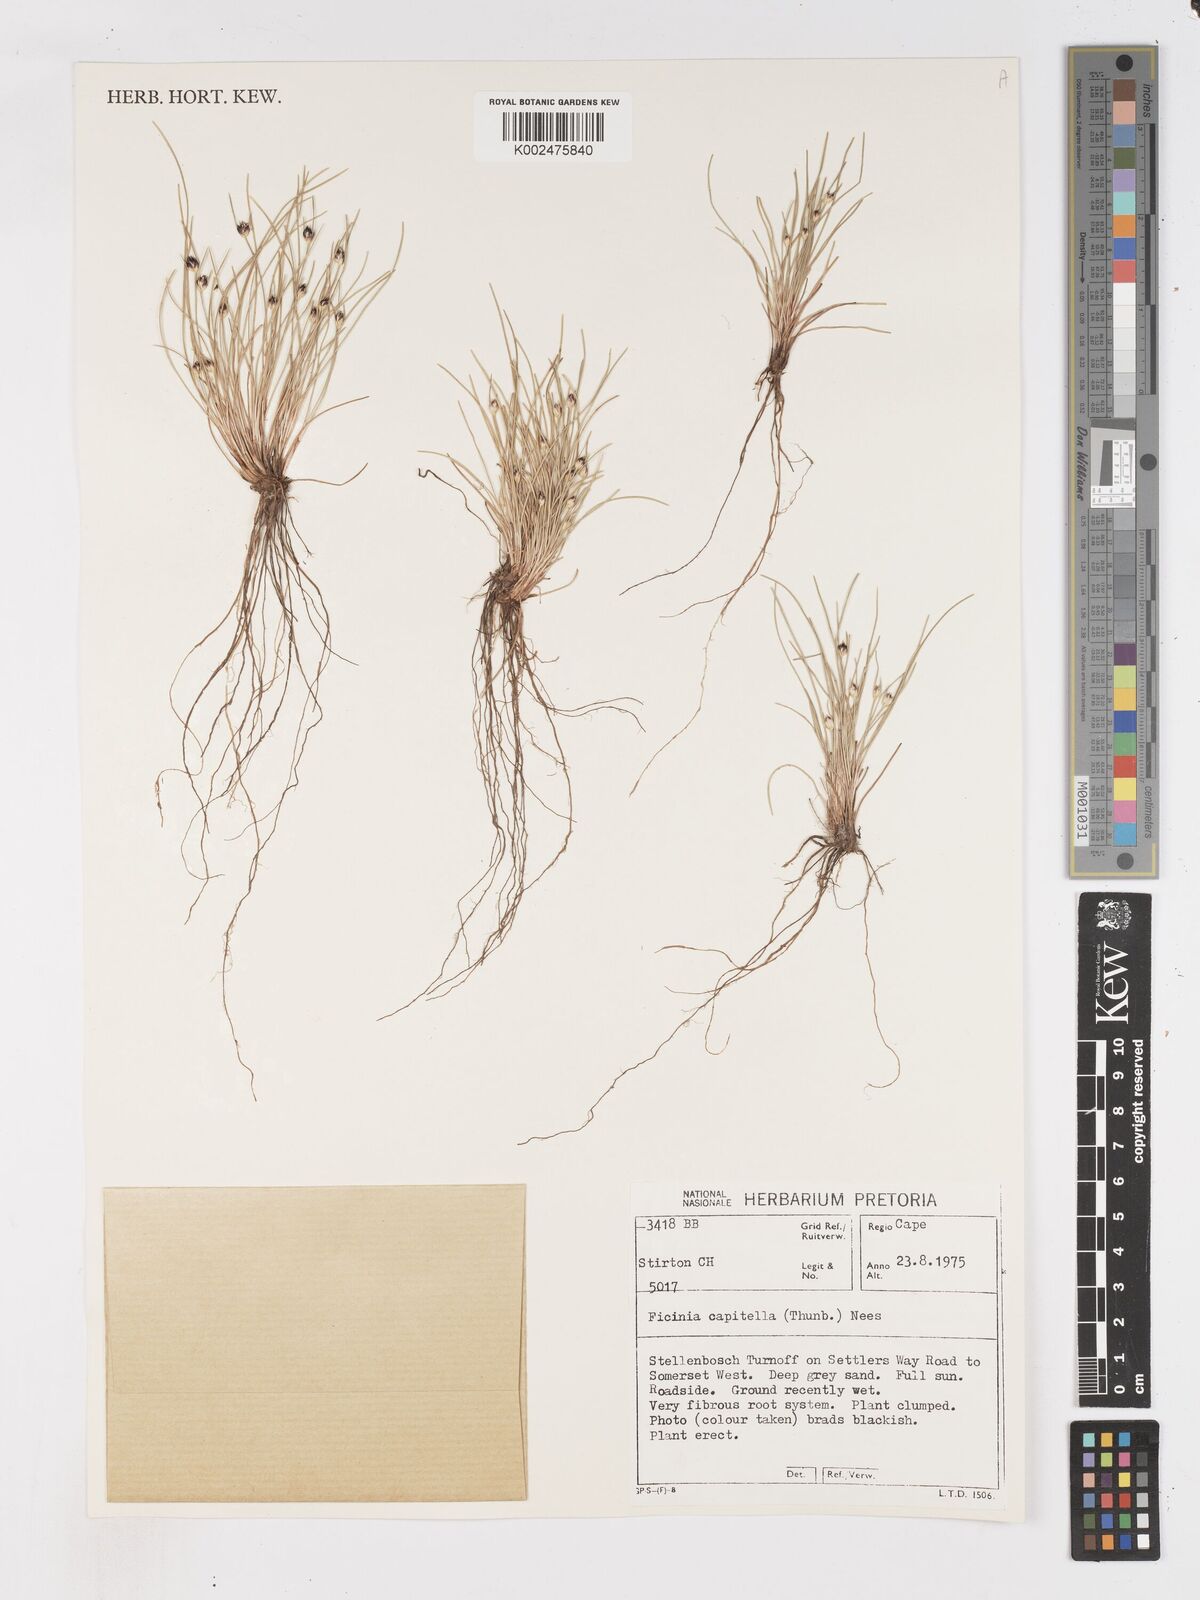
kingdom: Plantae
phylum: Tracheophyta
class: Liliopsida
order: Poales
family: Cyperaceae
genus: Ficinia
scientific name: Ficinia capitella
